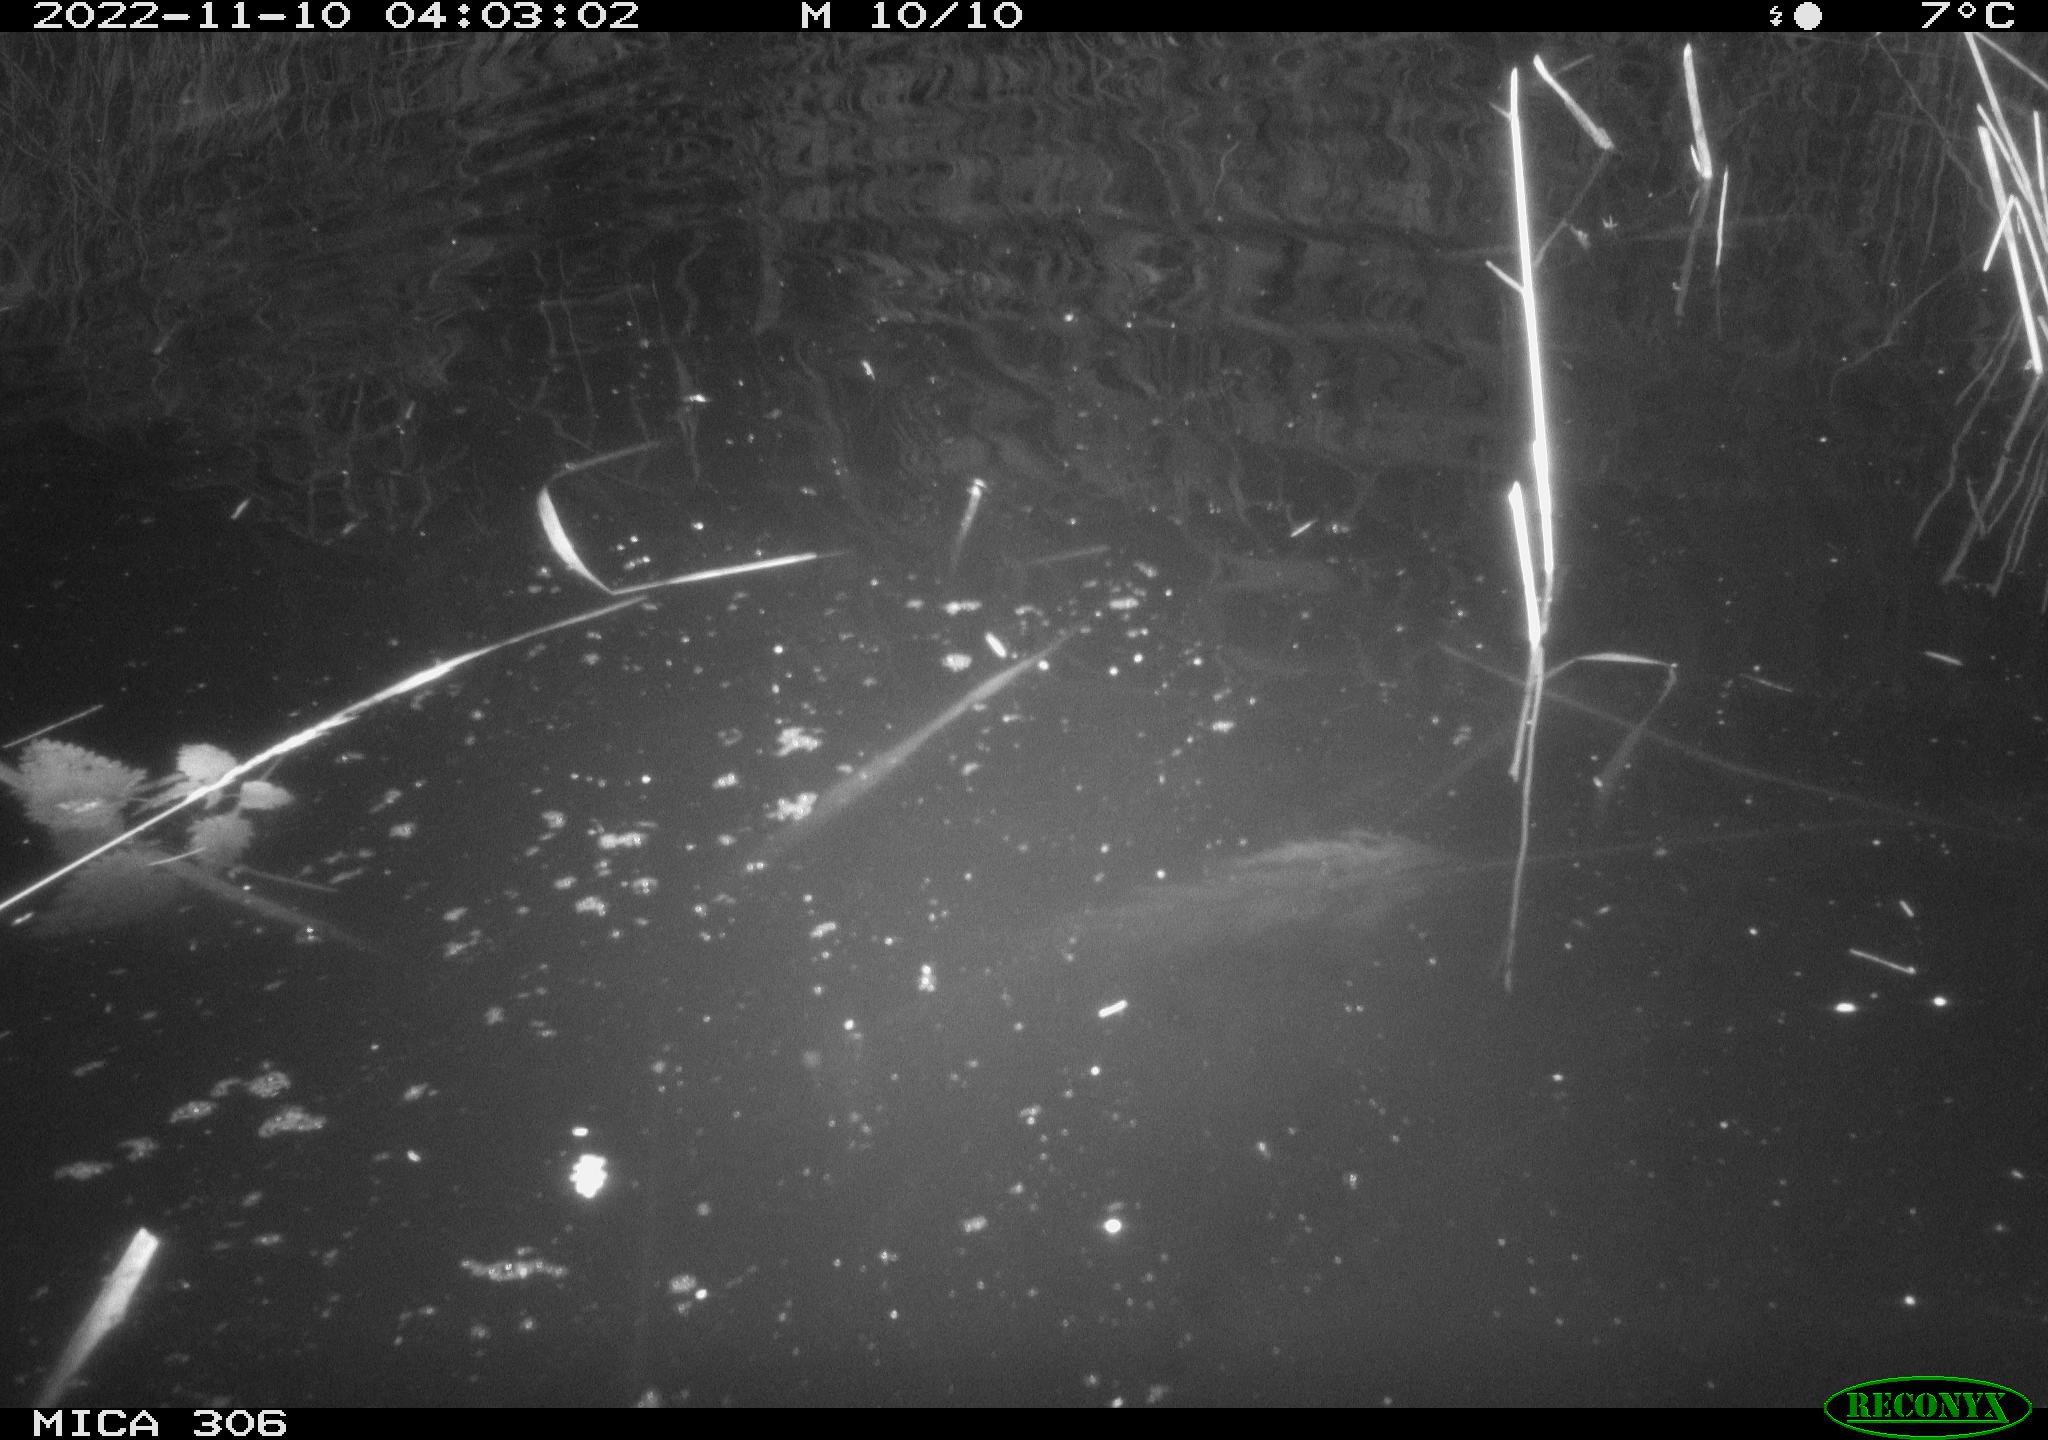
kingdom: Animalia
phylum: Chordata
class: Mammalia
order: Rodentia
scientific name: Rodentia
